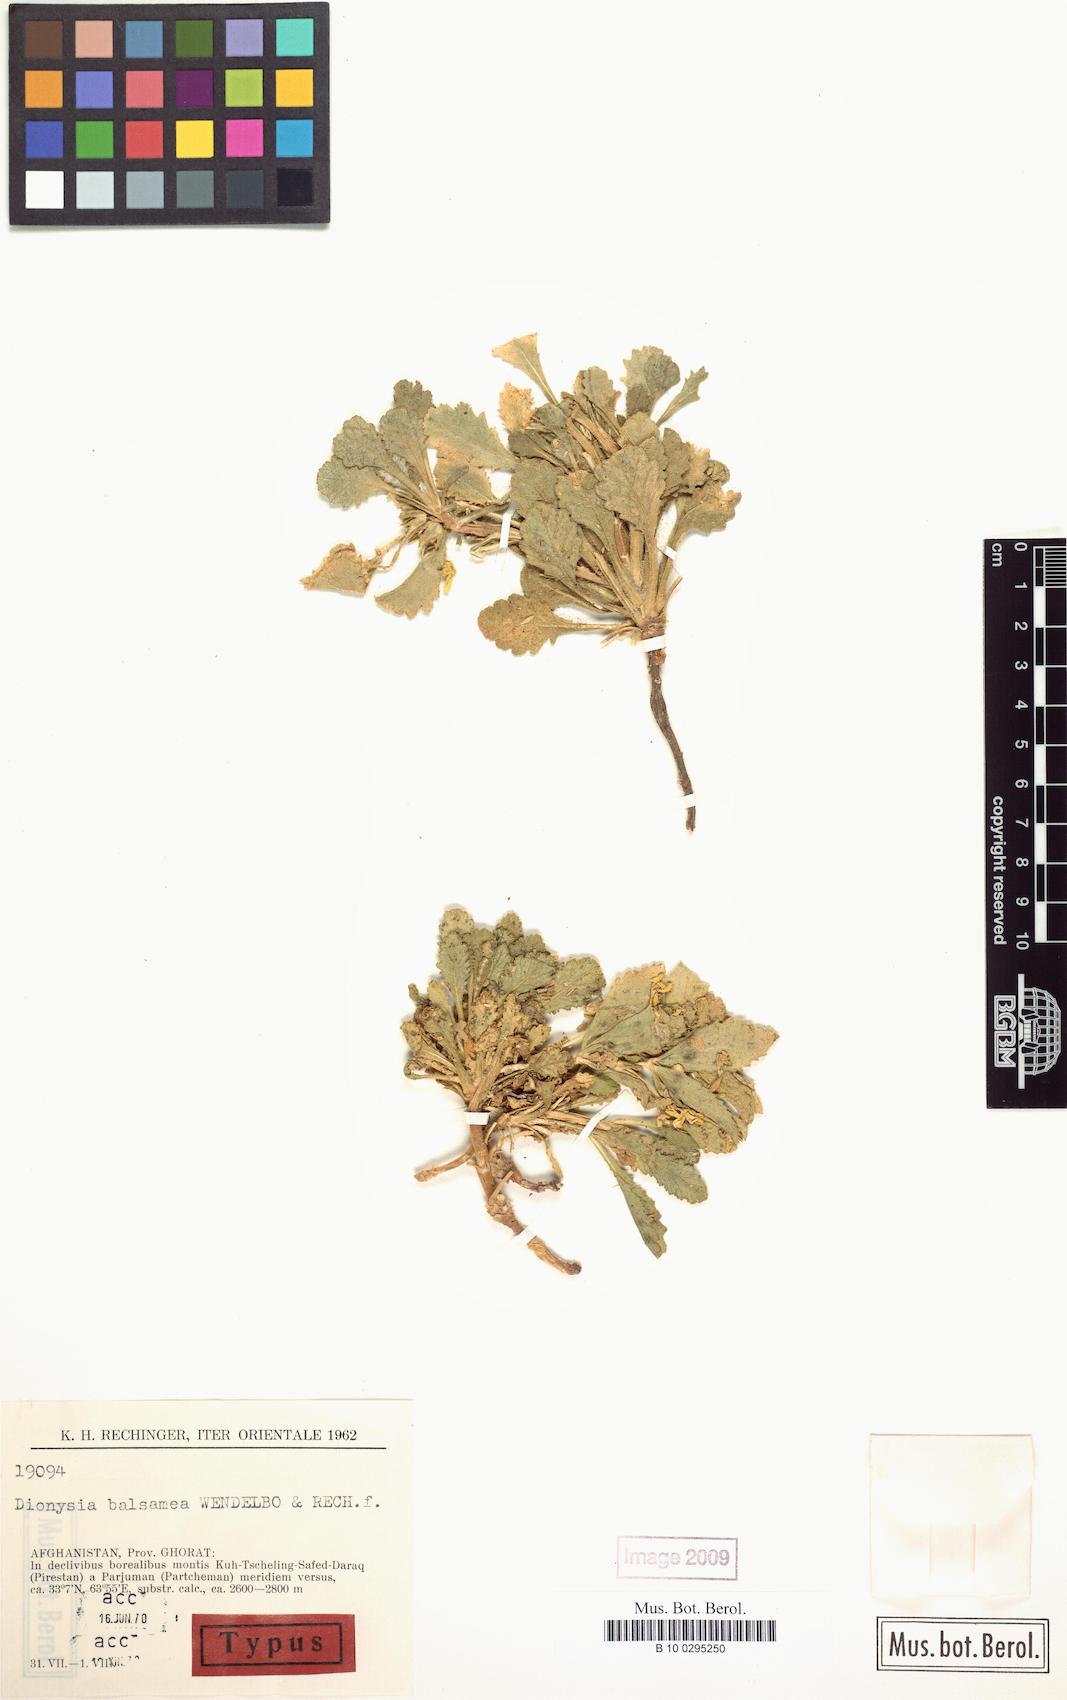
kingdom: Plantae
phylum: Tracheophyta
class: Magnoliopsida
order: Ericales
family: Primulaceae
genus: Dionysia
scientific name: Dionysia balsamea
